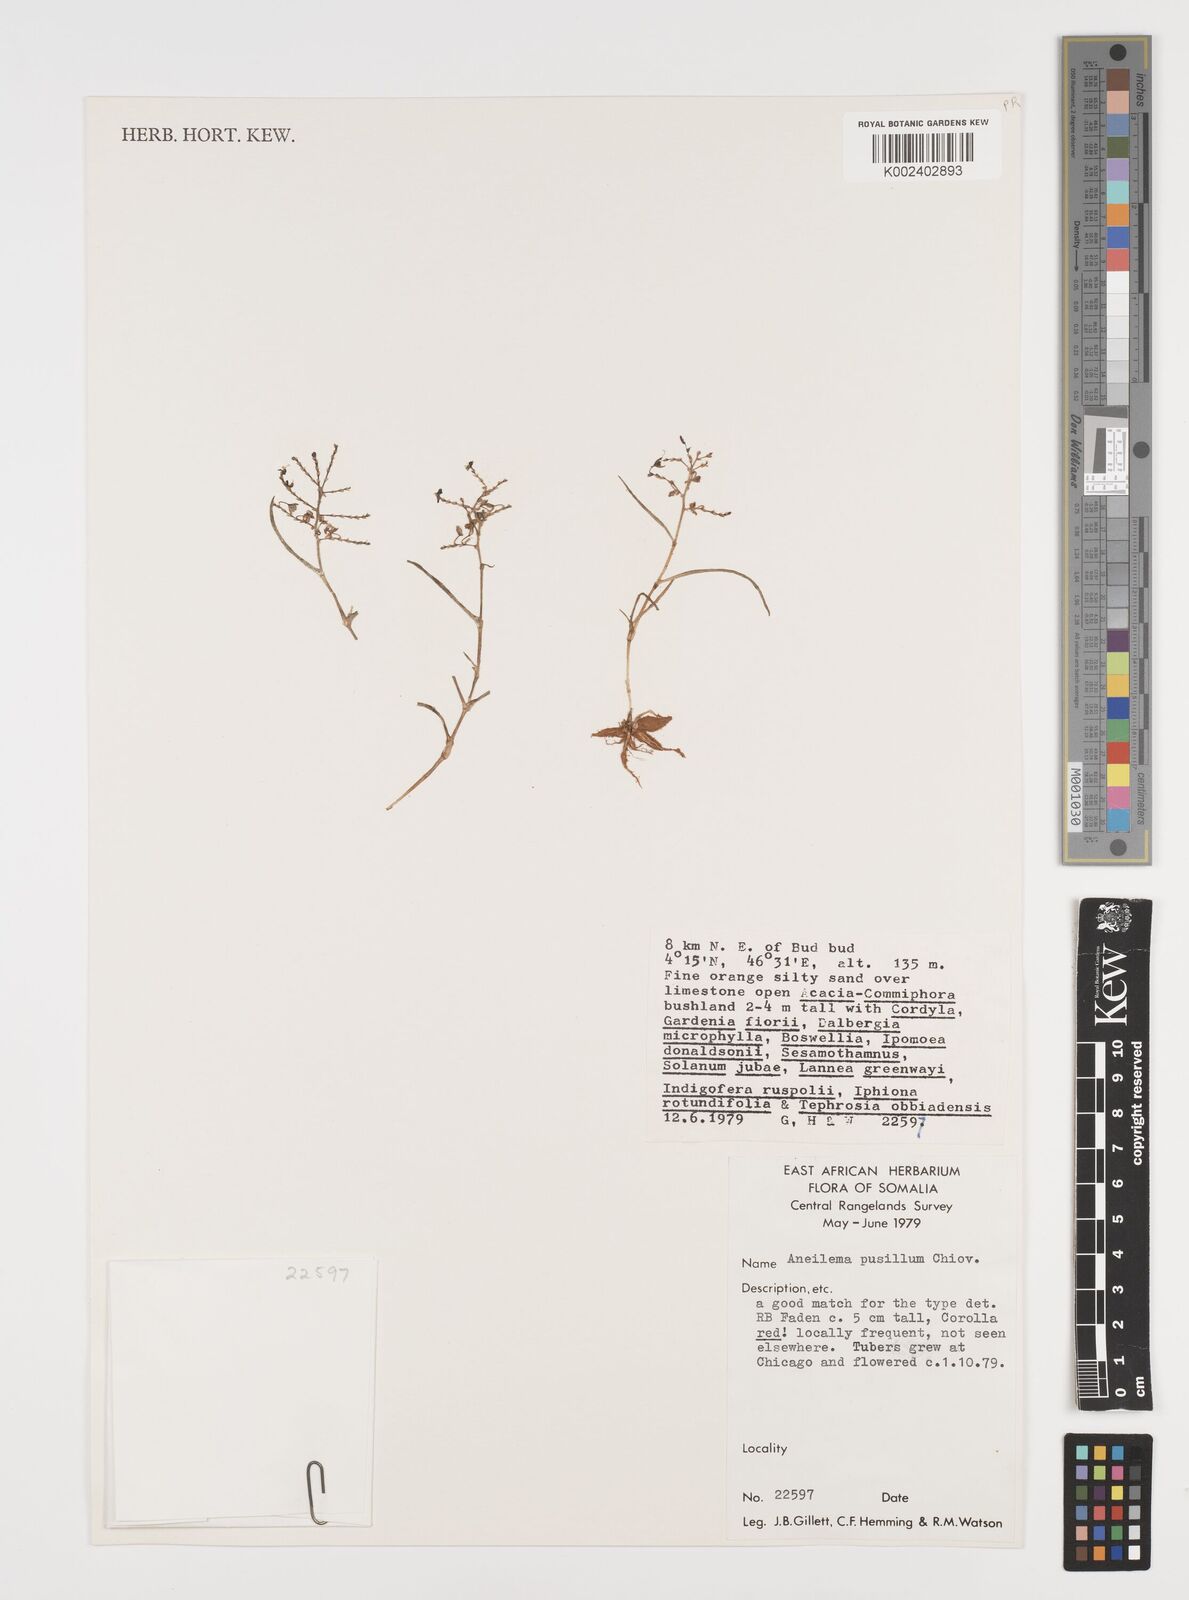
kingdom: Plantae
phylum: Tracheophyta
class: Liliopsida
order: Commelinales
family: Commelinaceae
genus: Aneilema
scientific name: Aneilema pusillum
